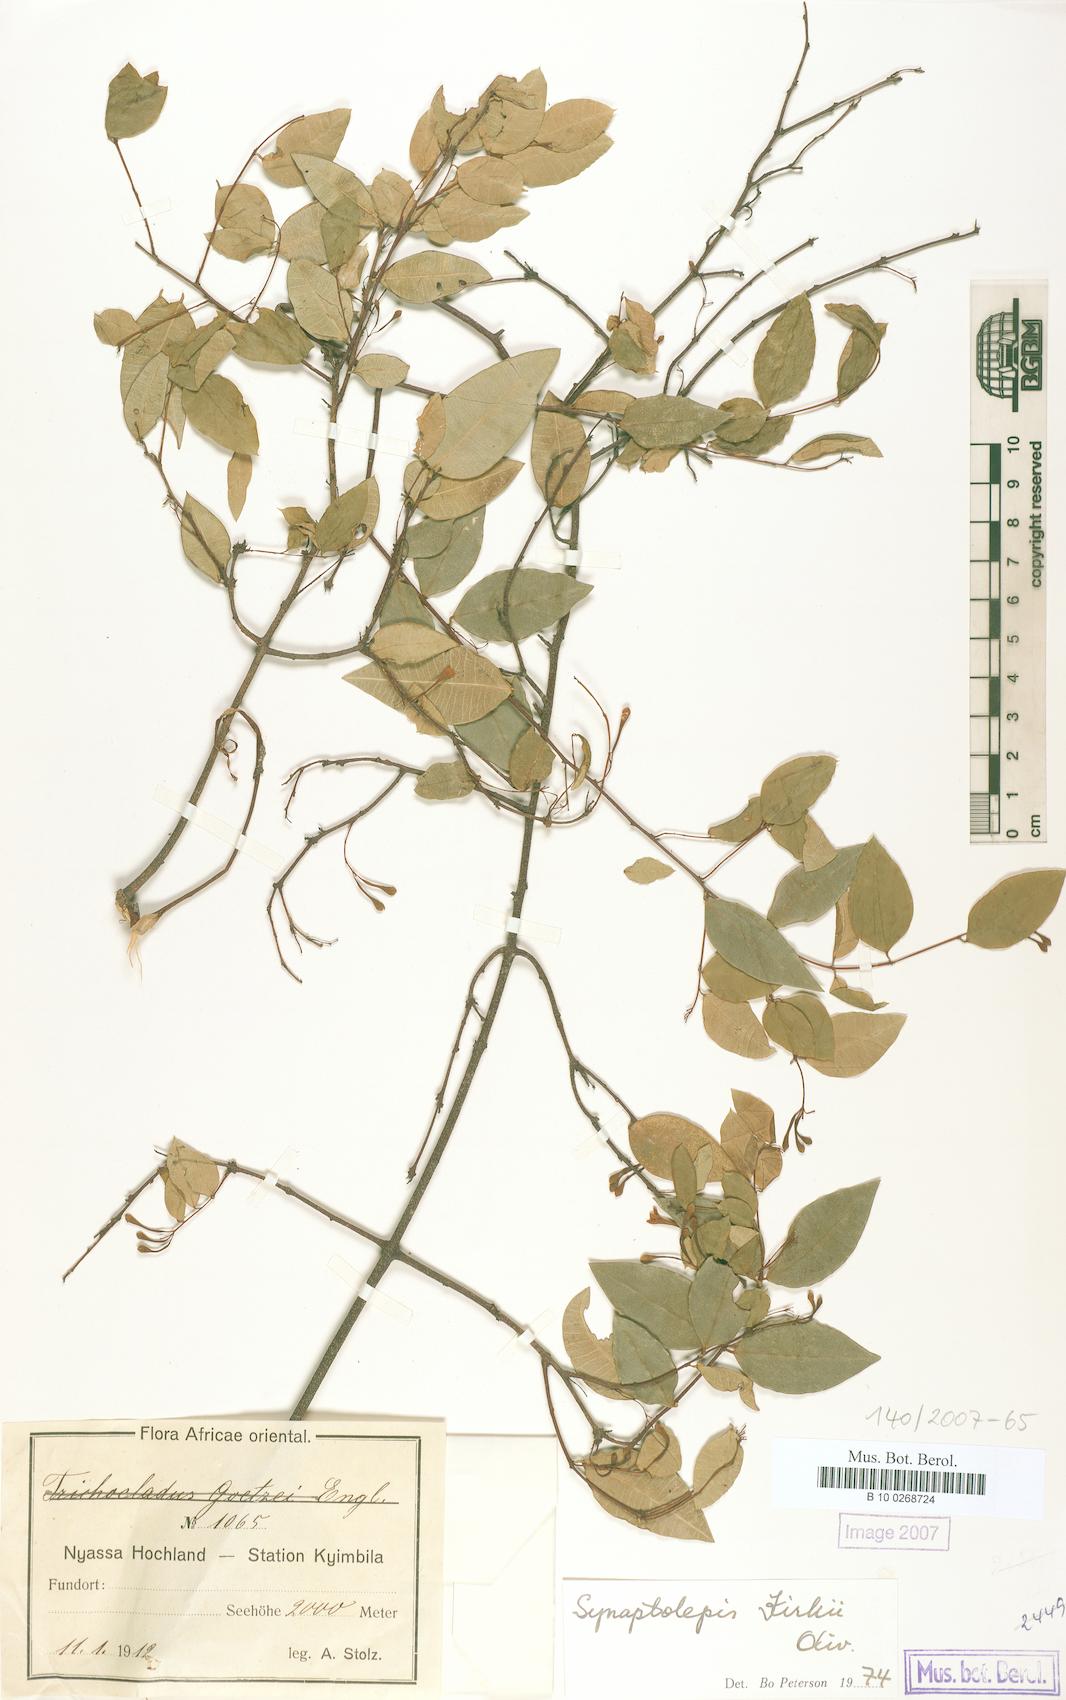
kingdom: Plantae
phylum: Tracheophyta
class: Magnoliopsida
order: Malvales
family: Thymelaeaceae
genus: Synaptolepis
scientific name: Synaptolepis kirkii
